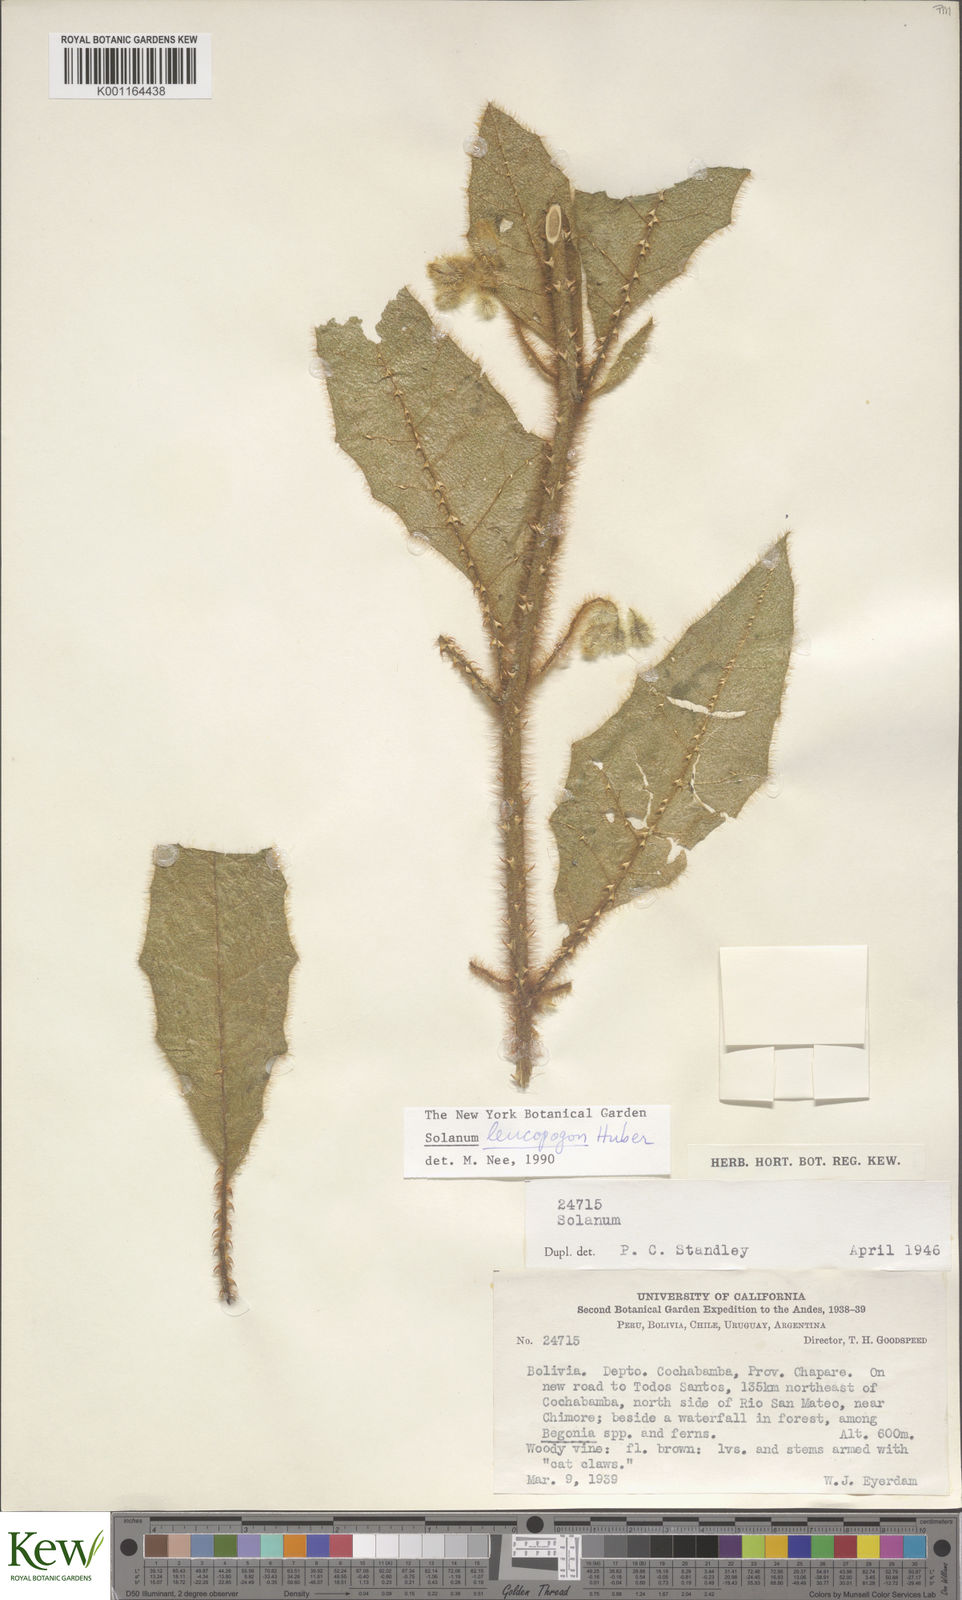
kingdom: Plantae
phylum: Tracheophyta
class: Magnoliopsida
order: Solanales
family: Solanaceae
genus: Solanum
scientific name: Solanum leucopogon
